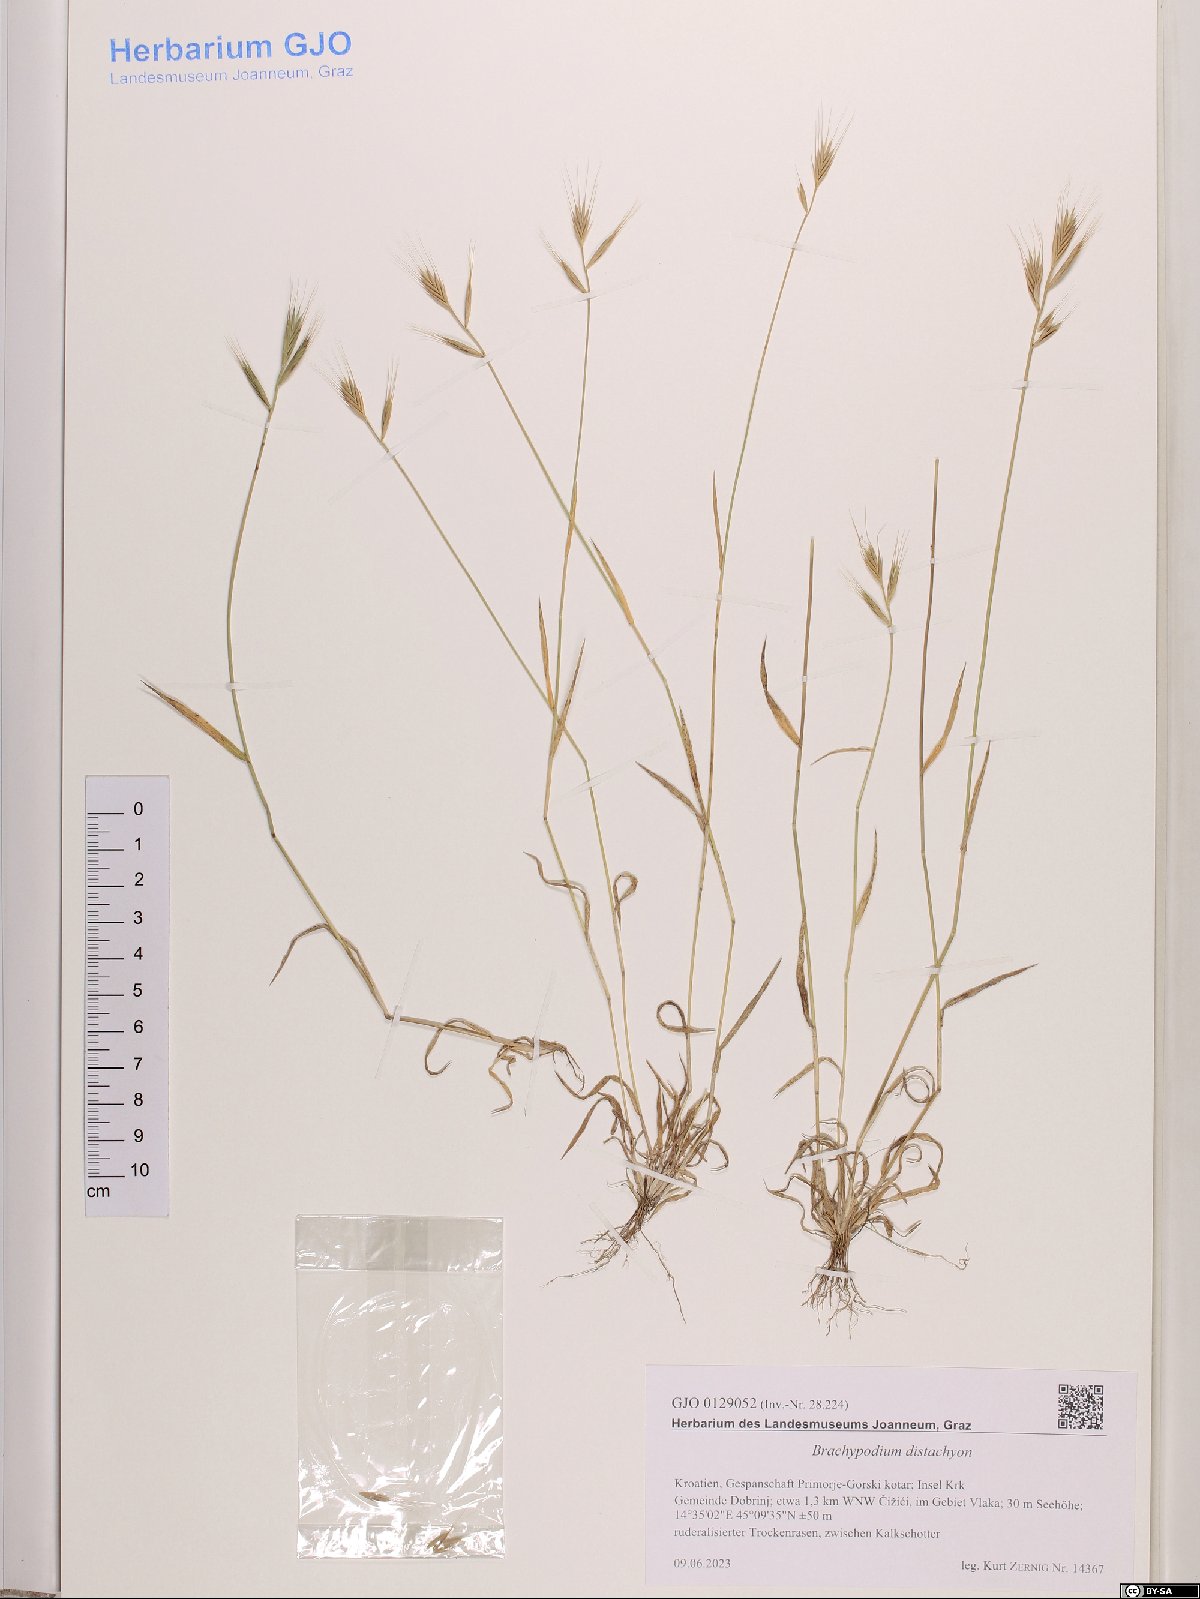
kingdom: Plantae
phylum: Tracheophyta
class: Liliopsida
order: Poales
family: Poaceae
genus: Brachypodium
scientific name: Brachypodium distachyon
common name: Stiff brome
